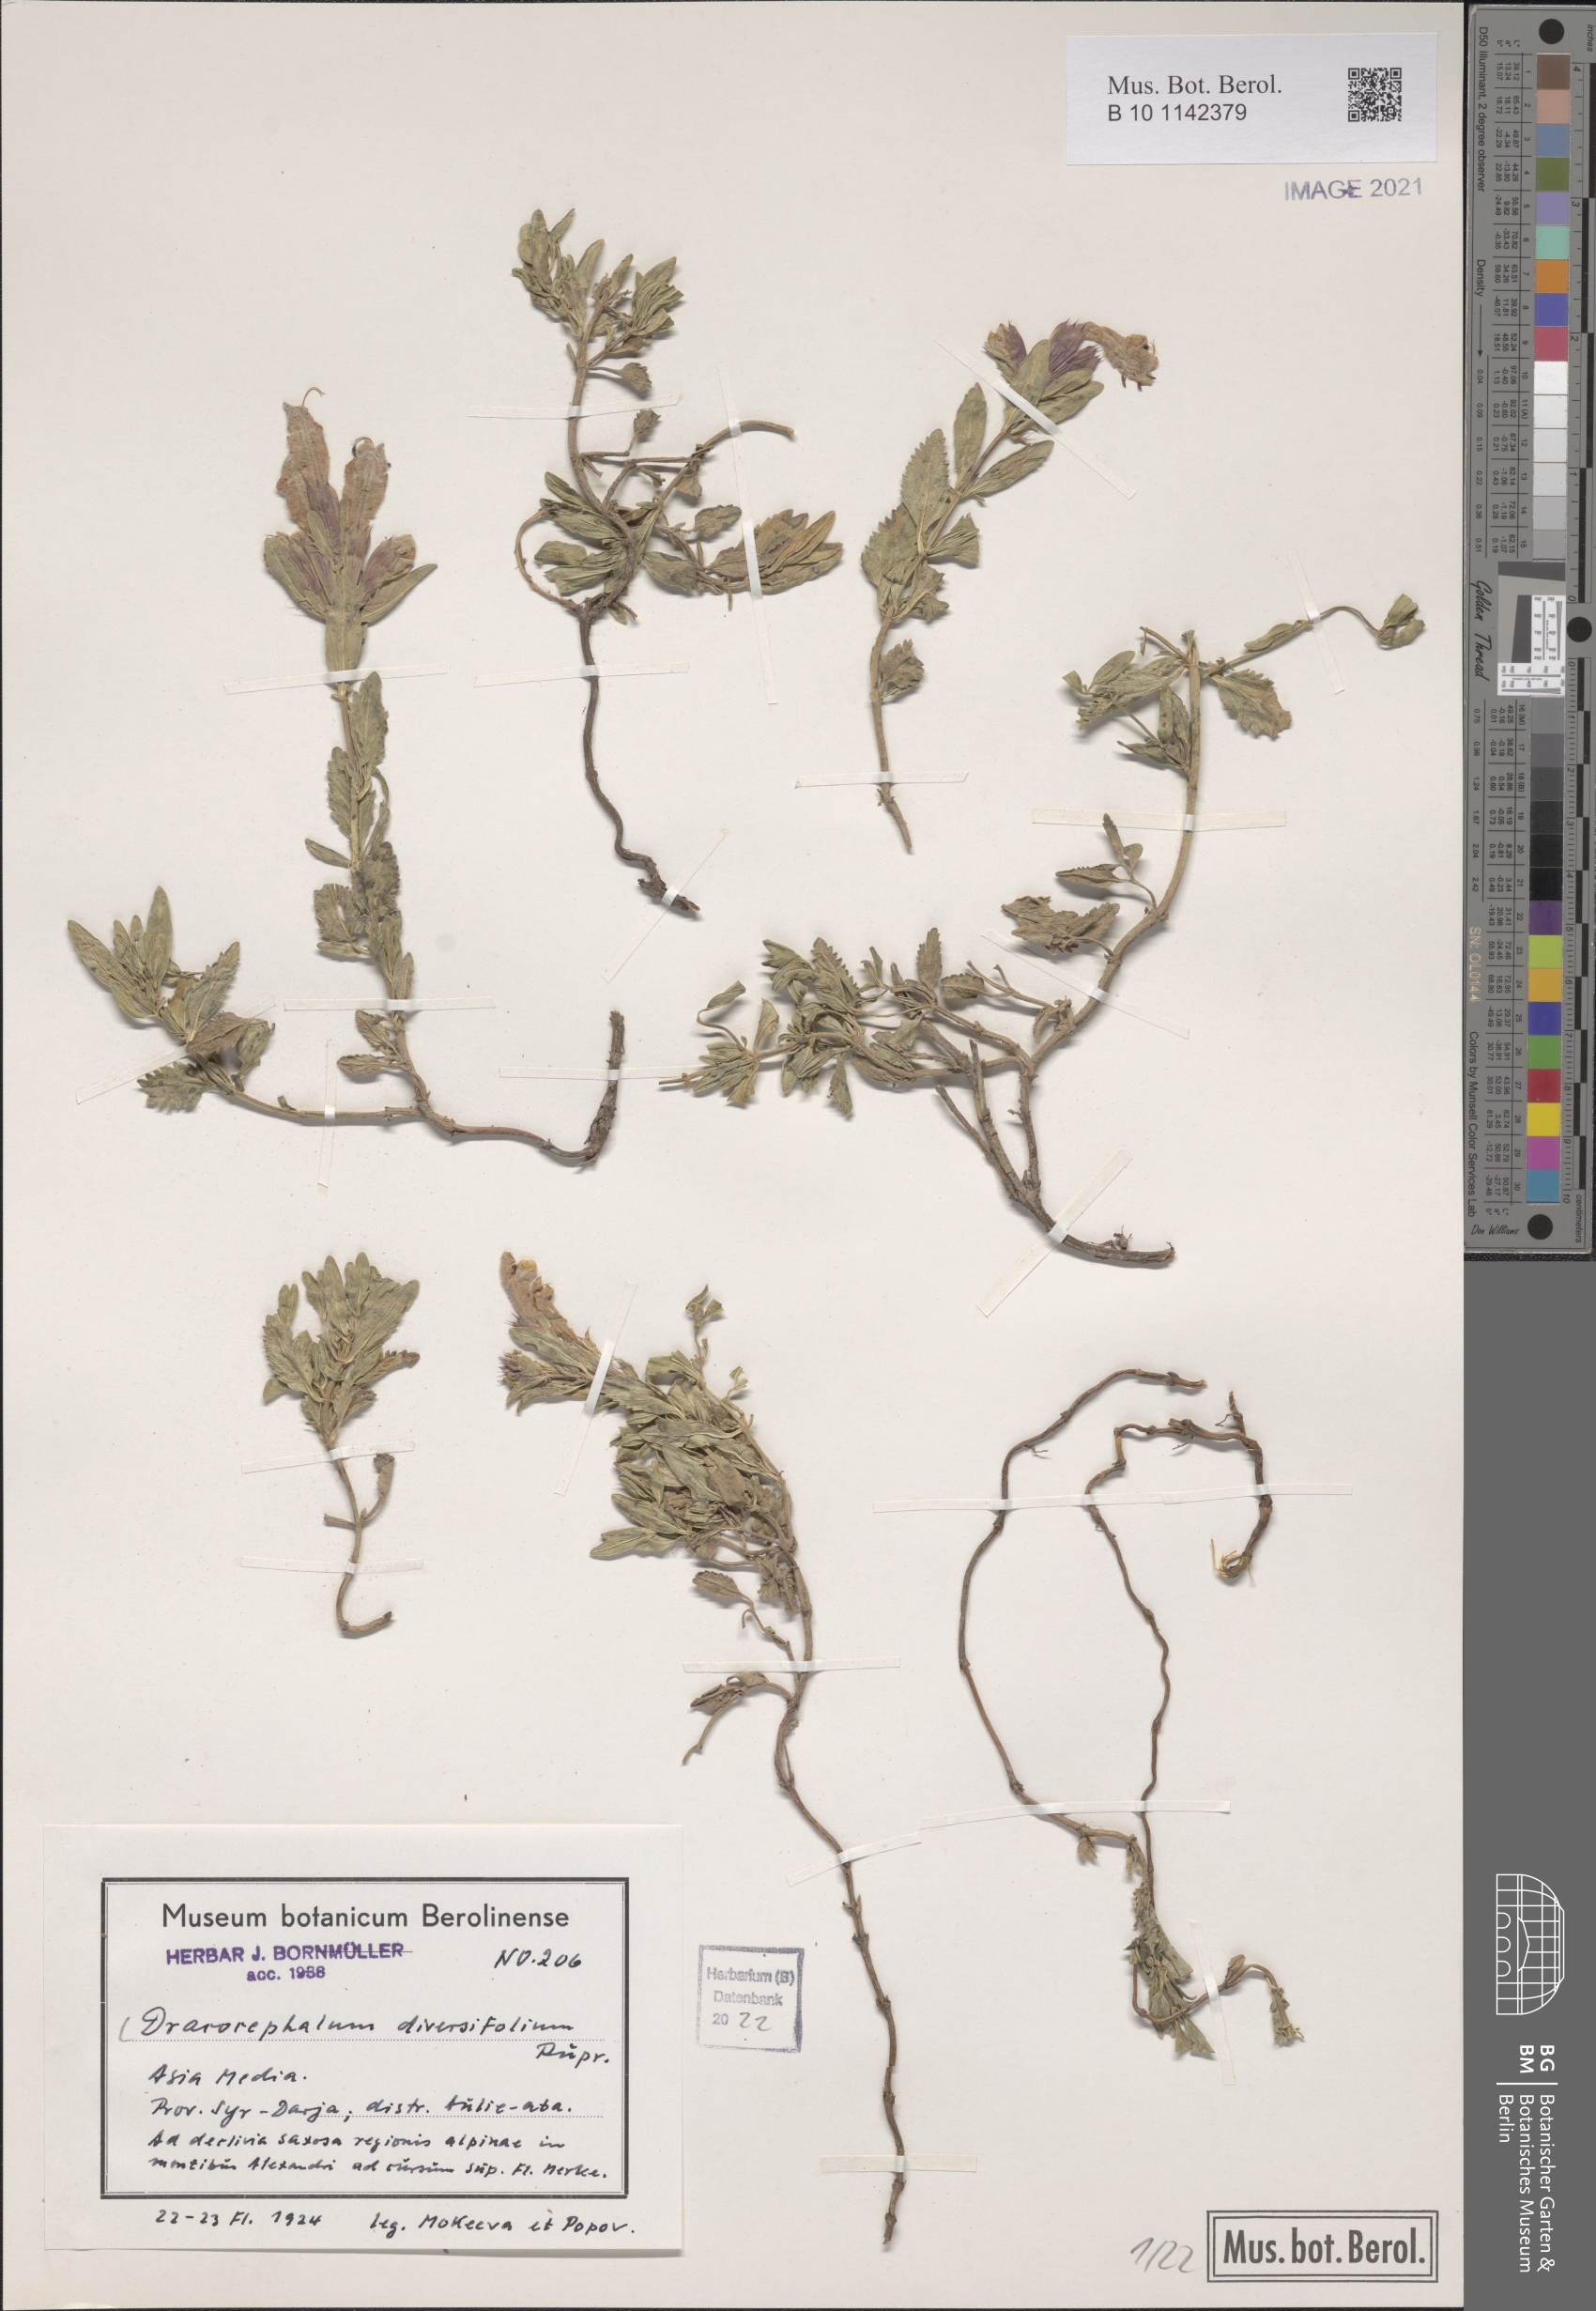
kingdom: Plantae
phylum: Tracheophyta
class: Magnoliopsida
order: Lamiales
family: Lamiaceae
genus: Dracocephalum
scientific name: Dracocephalum diversifolium
